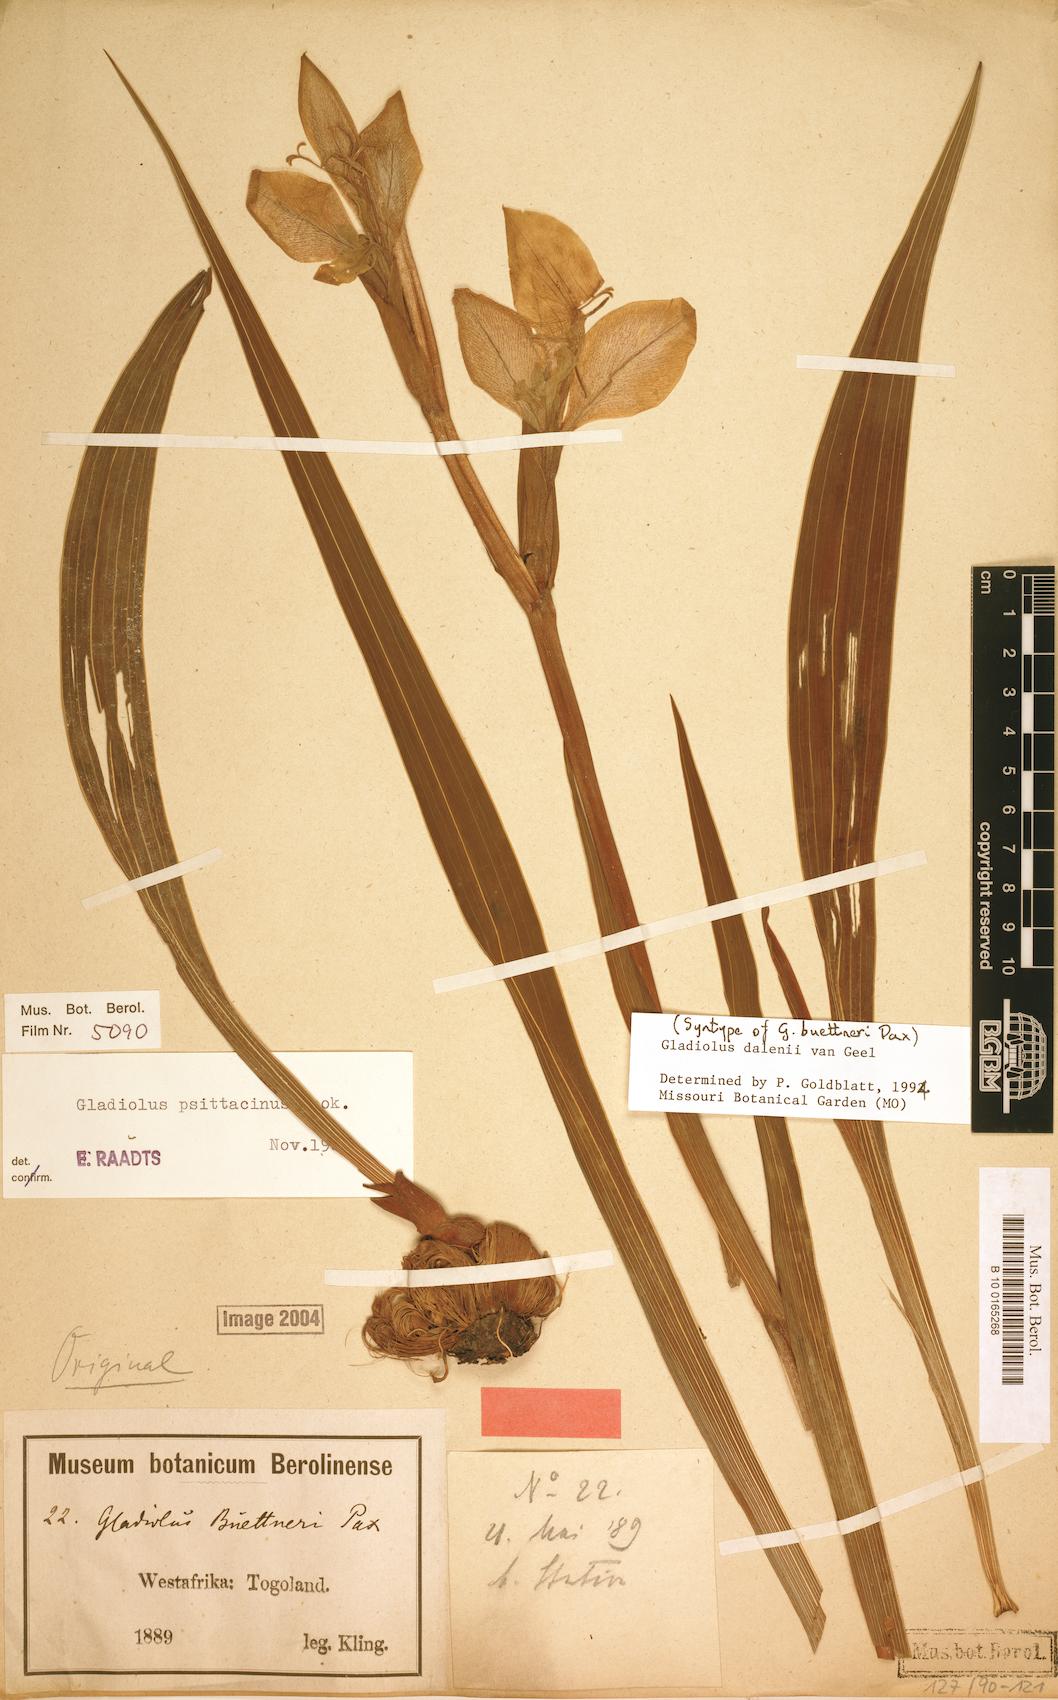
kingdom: Plantae
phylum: Tracheophyta
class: Liliopsida
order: Asparagales
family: Iridaceae
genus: Gladiolus
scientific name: Gladiolus dalenii
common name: Cornflag
